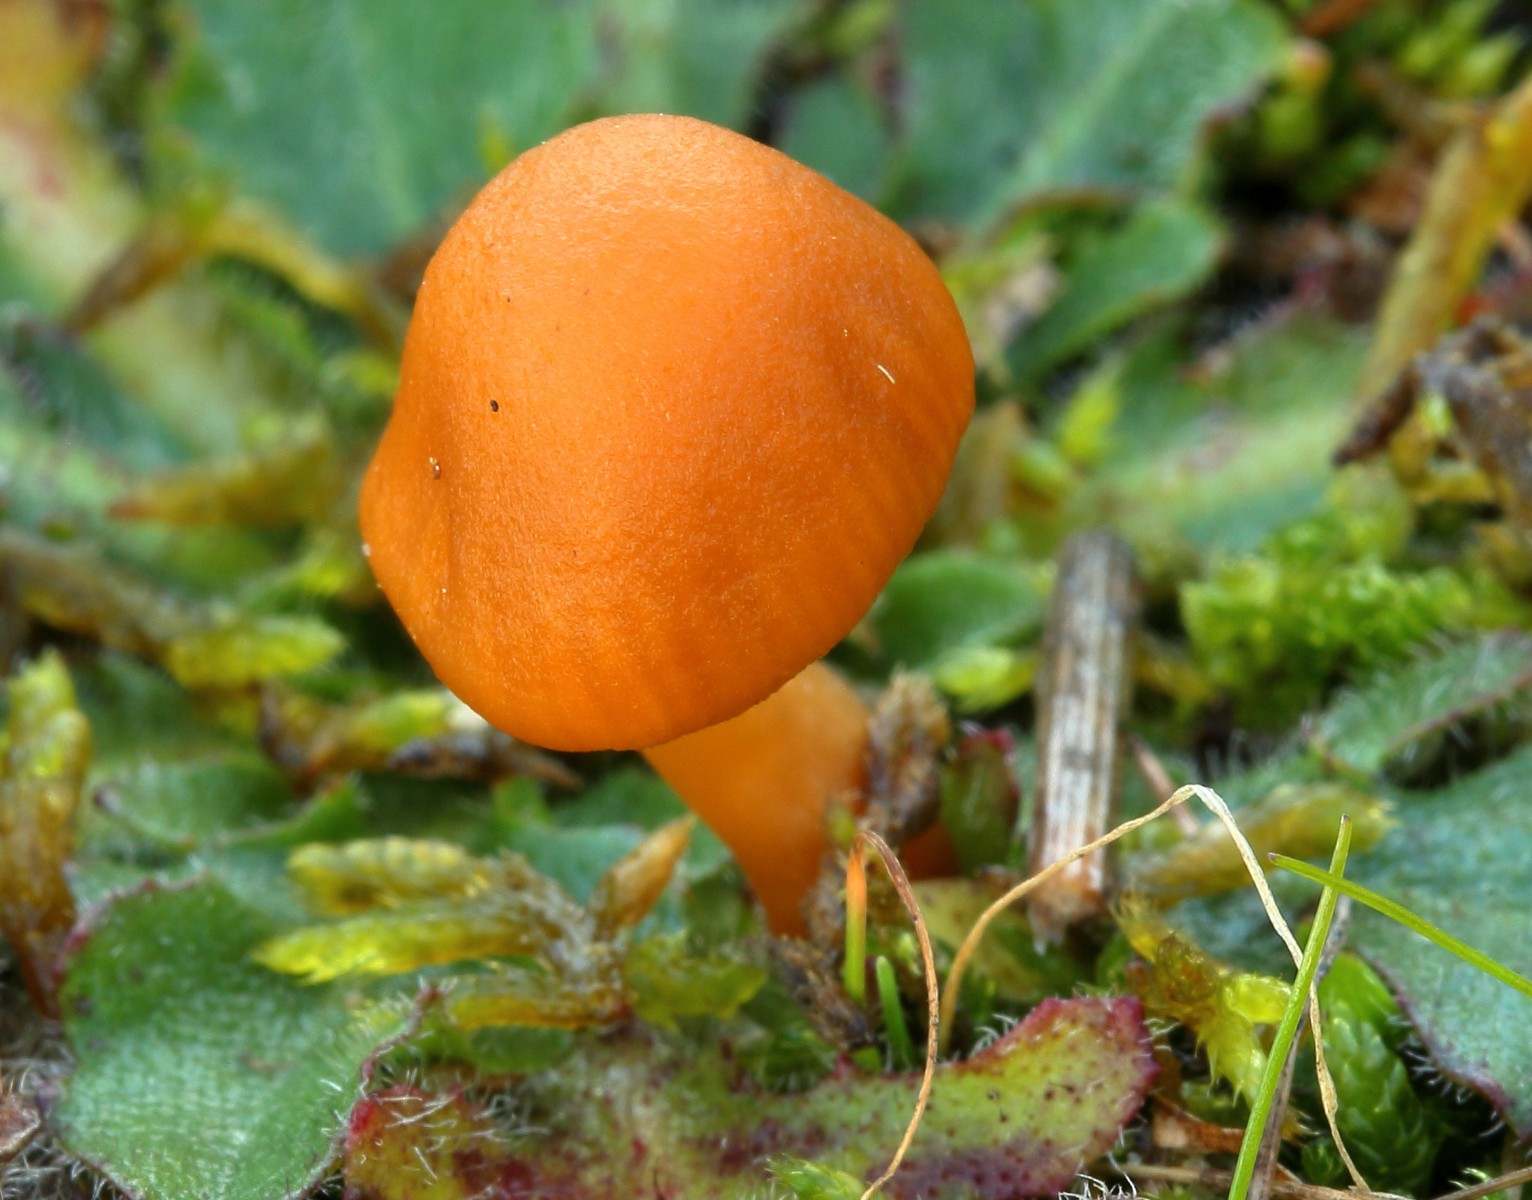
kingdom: Fungi
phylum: Basidiomycota
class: Agaricomycetes
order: Agaricales
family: Hymenogastraceae
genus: Galerina
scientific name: Galerina
